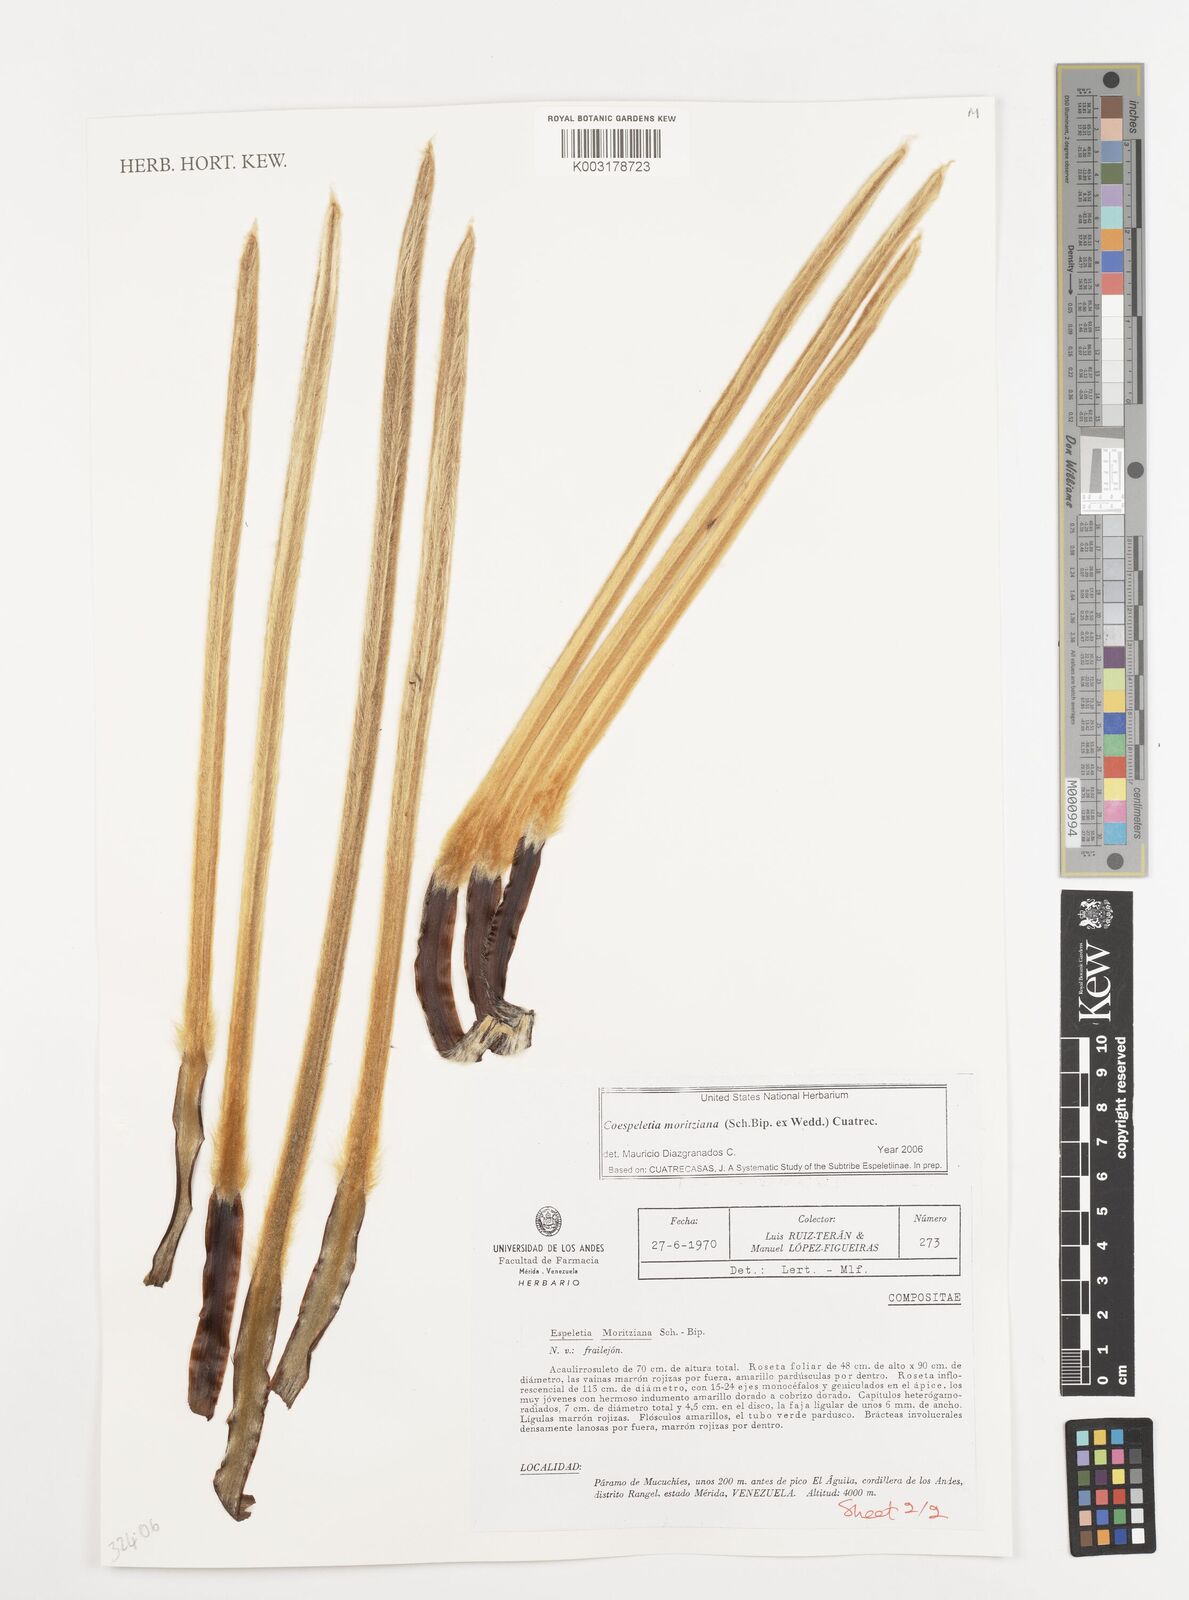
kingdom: Plantae
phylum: Tracheophyta
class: Magnoliopsida
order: Asterales
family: Asteraceae
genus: Espeletia
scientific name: Espeletia moritziana
